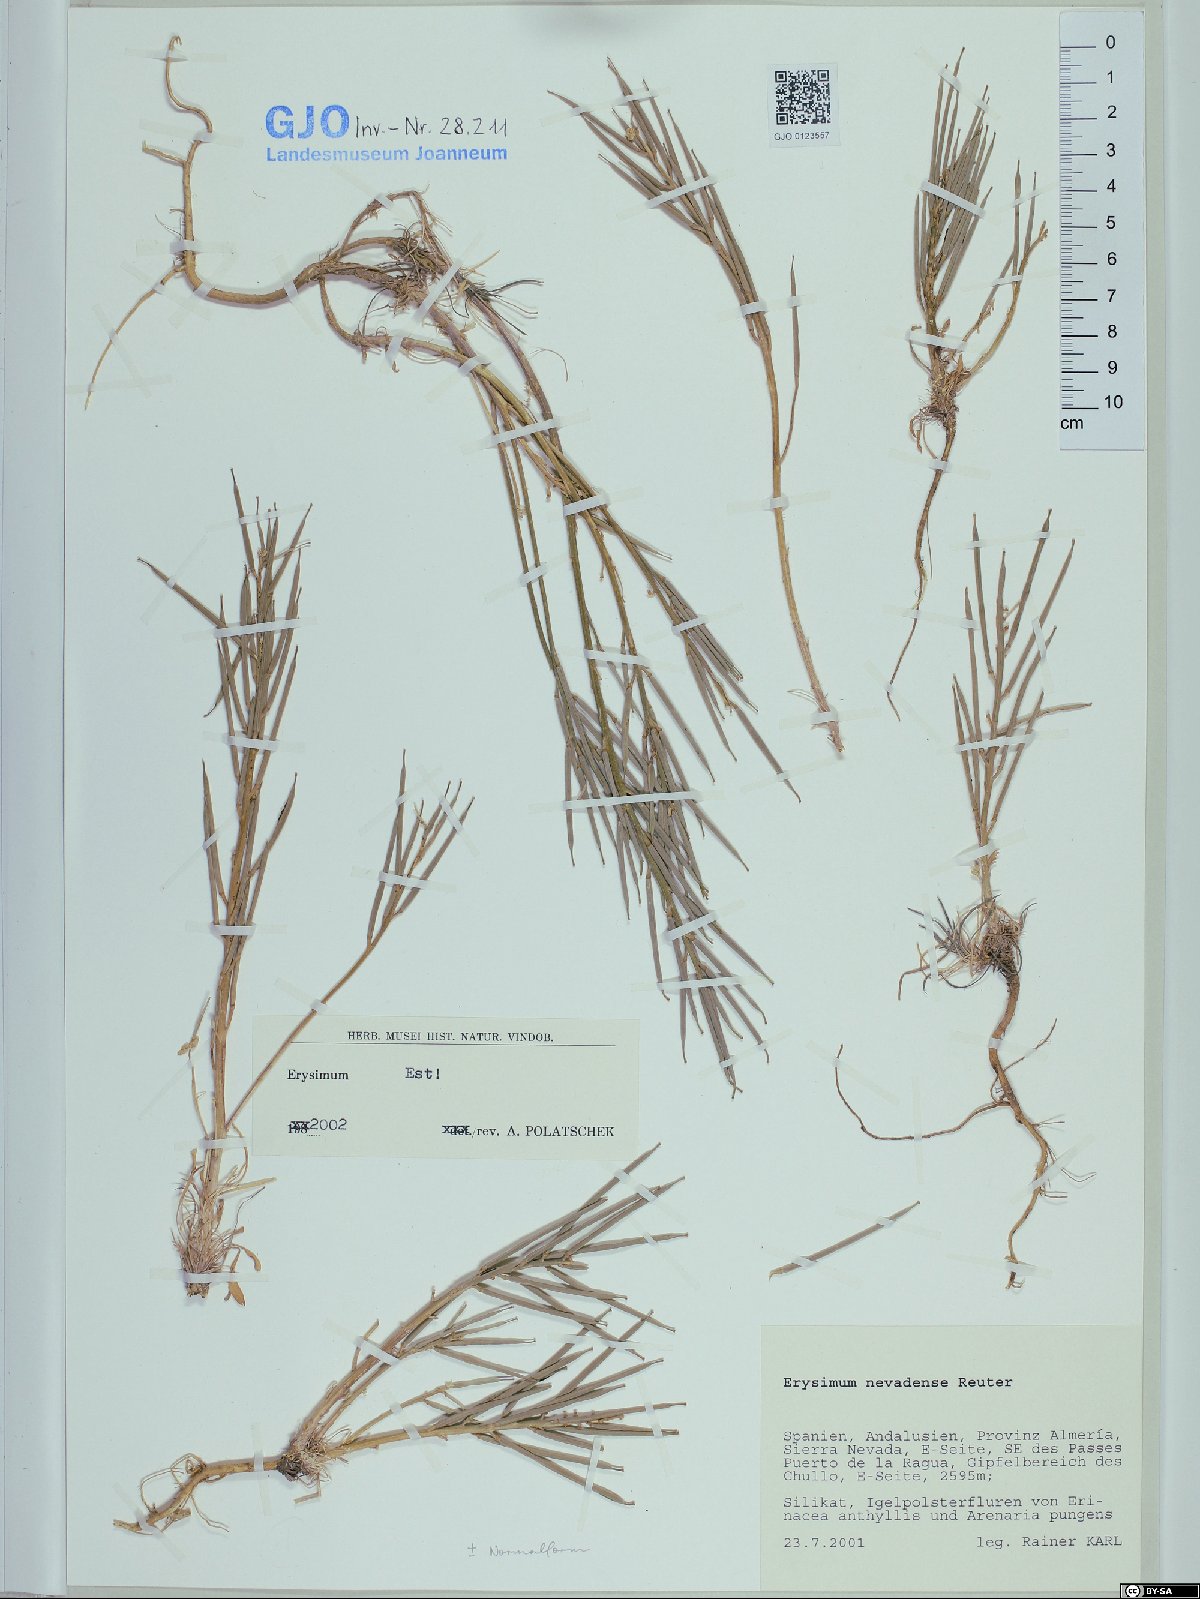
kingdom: Plantae
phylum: Tracheophyta
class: Magnoliopsida
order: Brassicales
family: Brassicaceae
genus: Erysimum
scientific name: Erysimum nevadense
